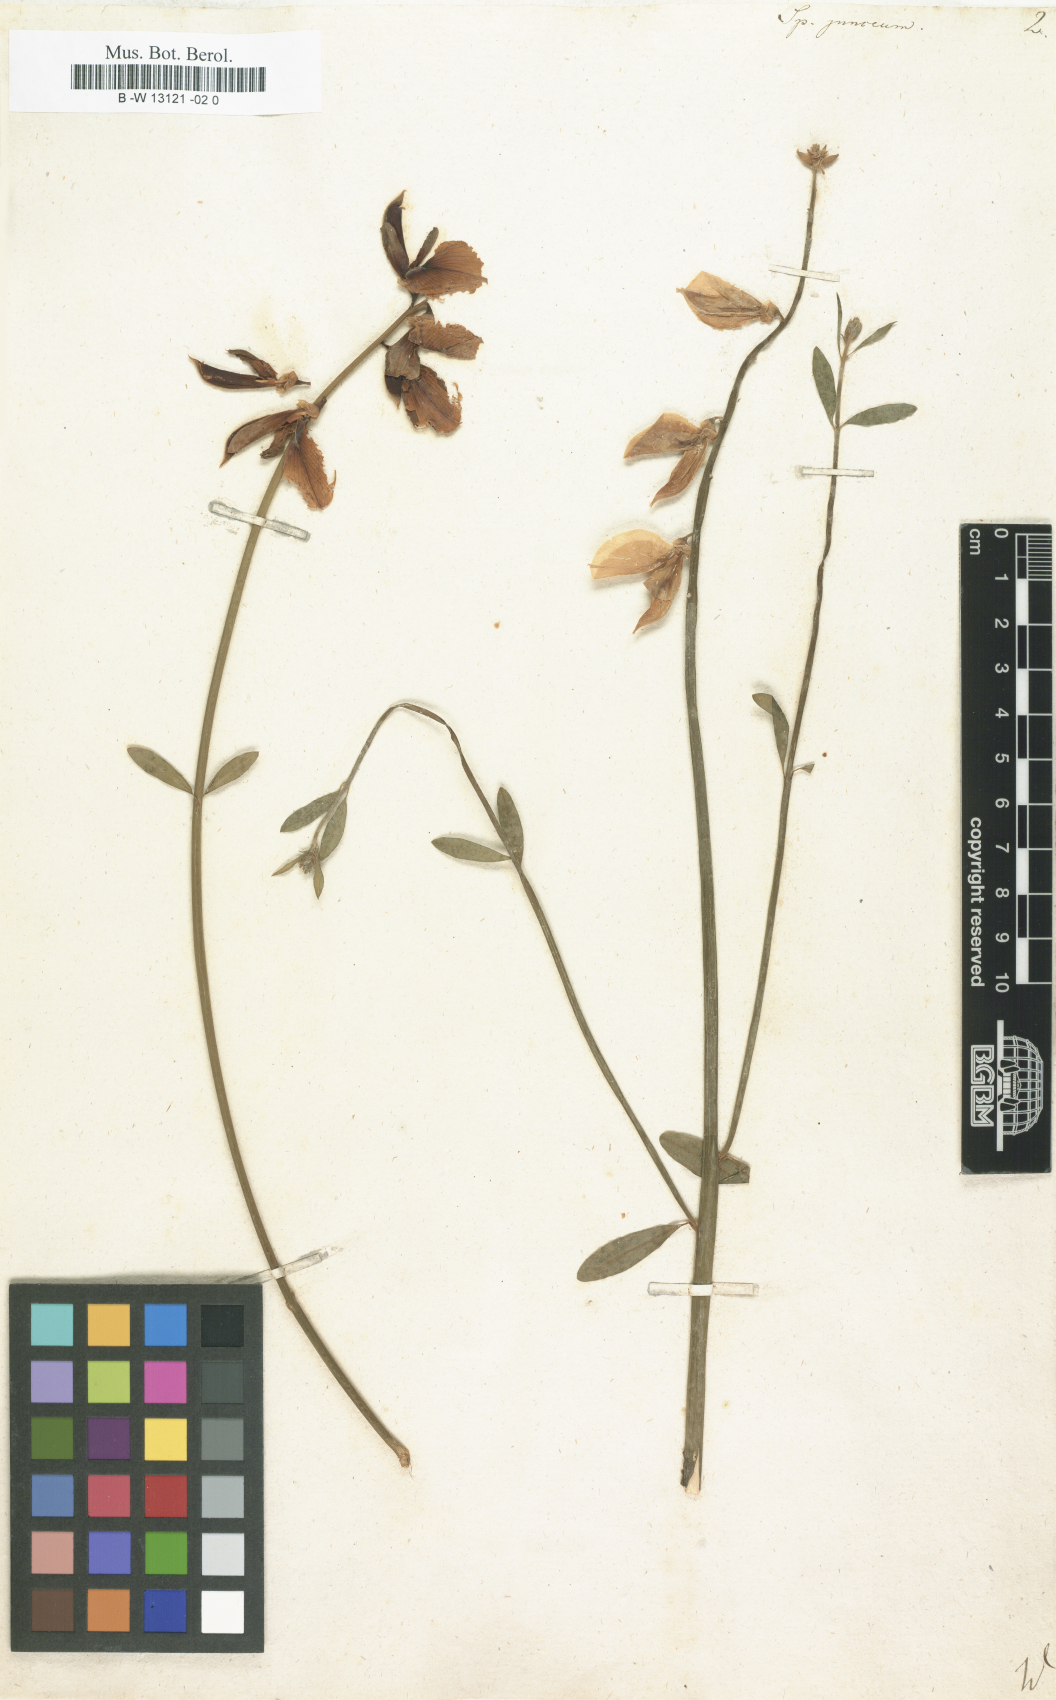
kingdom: Plantae
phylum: Tracheophyta
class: Magnoliopsida
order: Fabales
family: Fabaceae
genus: Spartium
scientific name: Spartium junceum
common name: Spanish broom
